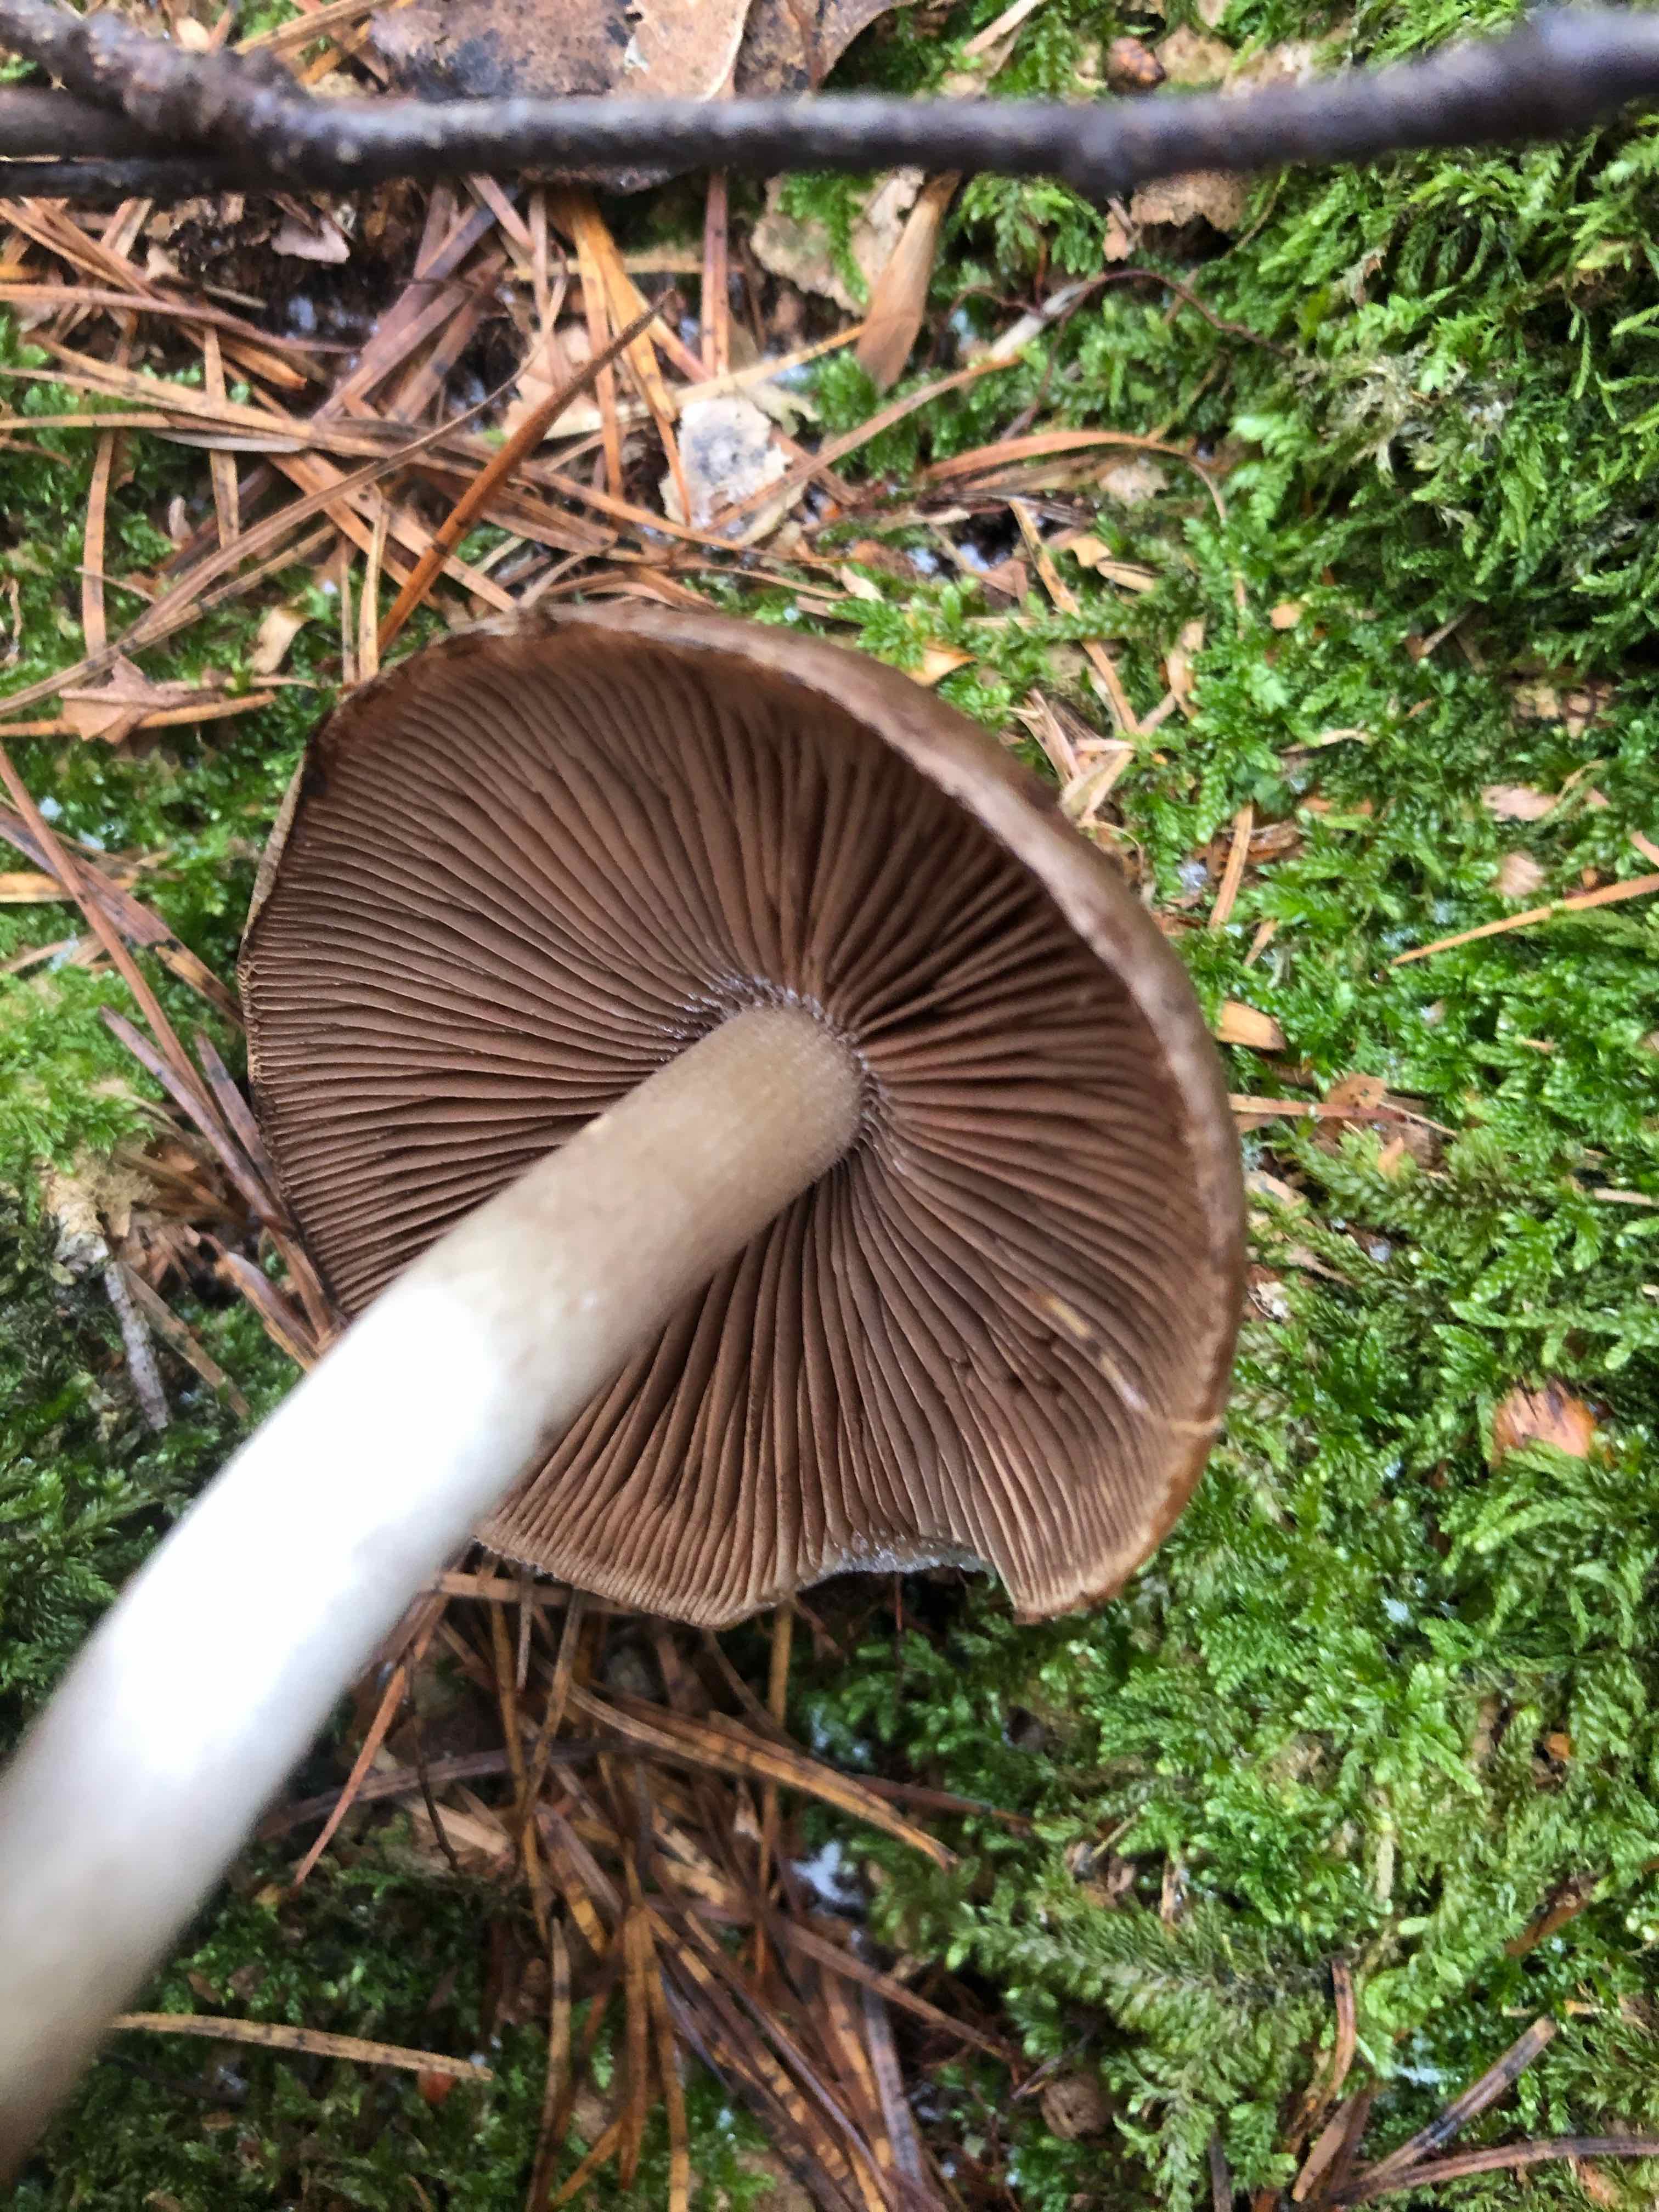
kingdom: Fungi
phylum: Basidiomycota
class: Agaricomycetes
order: Agaricales
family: Psathyrellaceae
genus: Psathyrella
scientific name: Psathyrella
